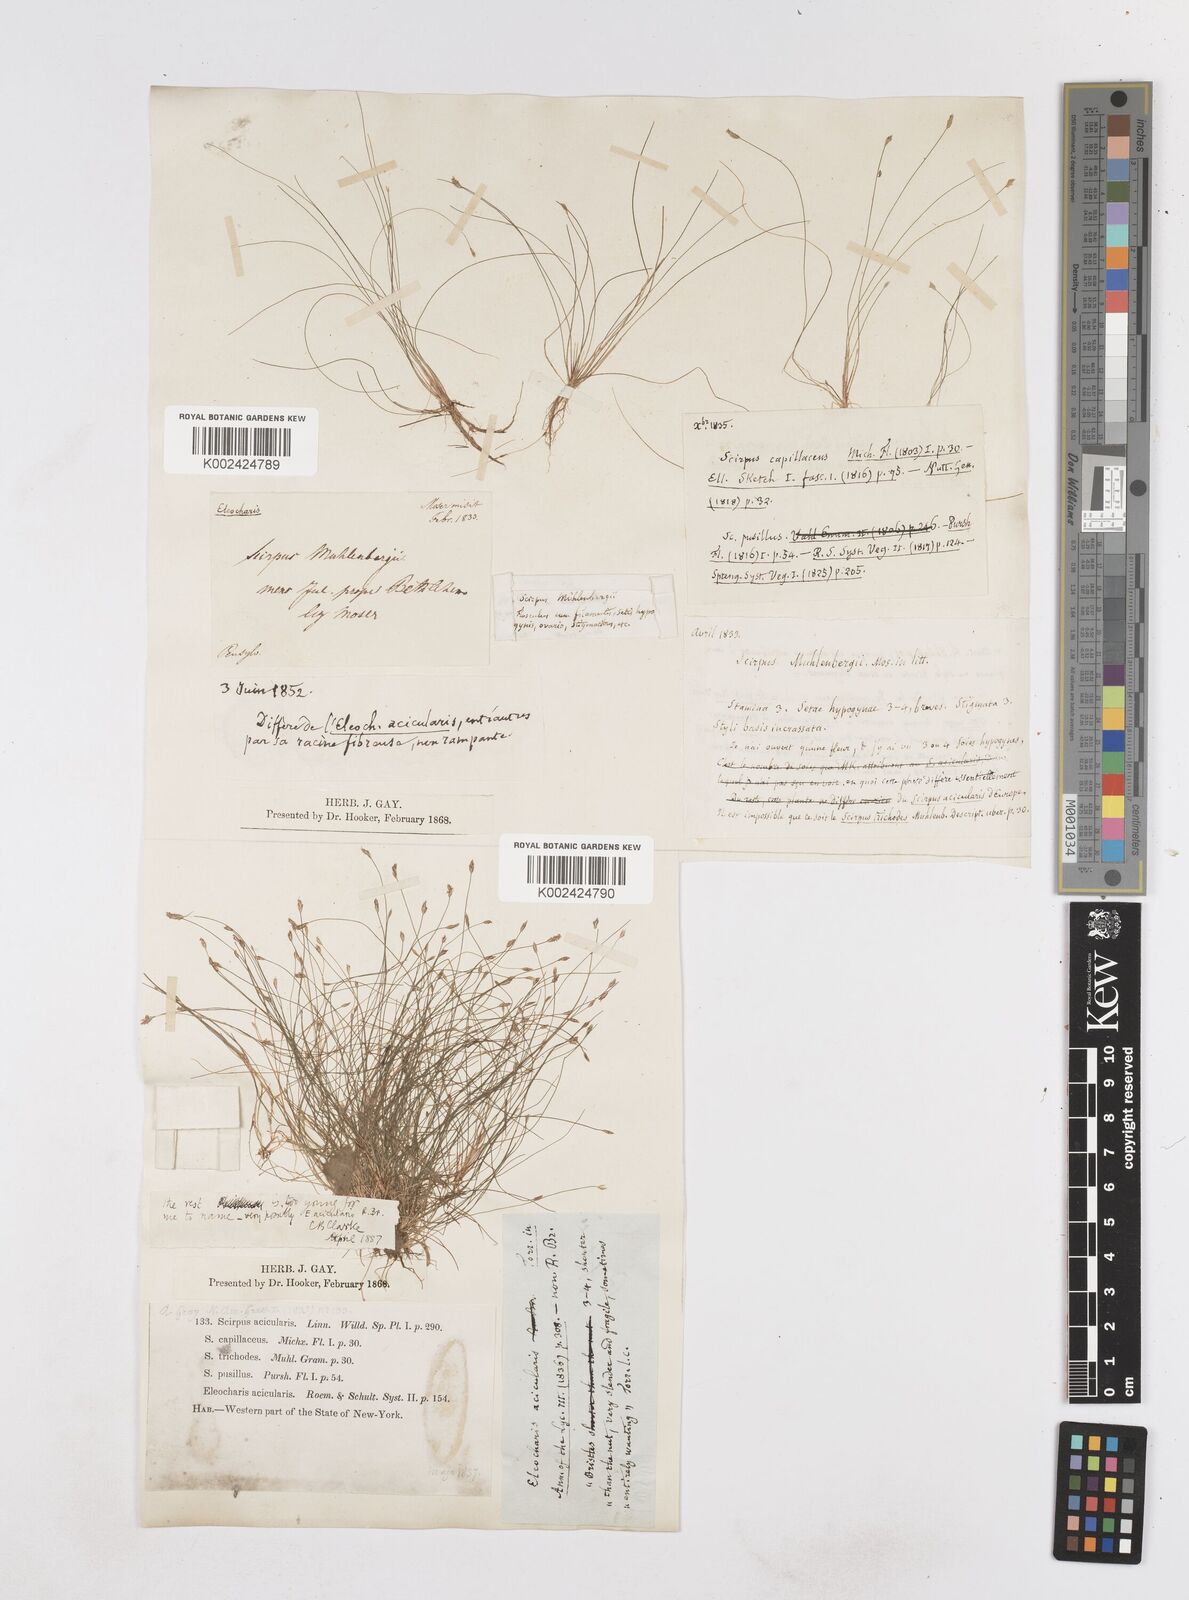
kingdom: Plantae
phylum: Tracheophyta
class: Liliopsida
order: Poales
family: Cyperaceae
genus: Eleocharis
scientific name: Eleocharis acicularis
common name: Needle spike-rush
